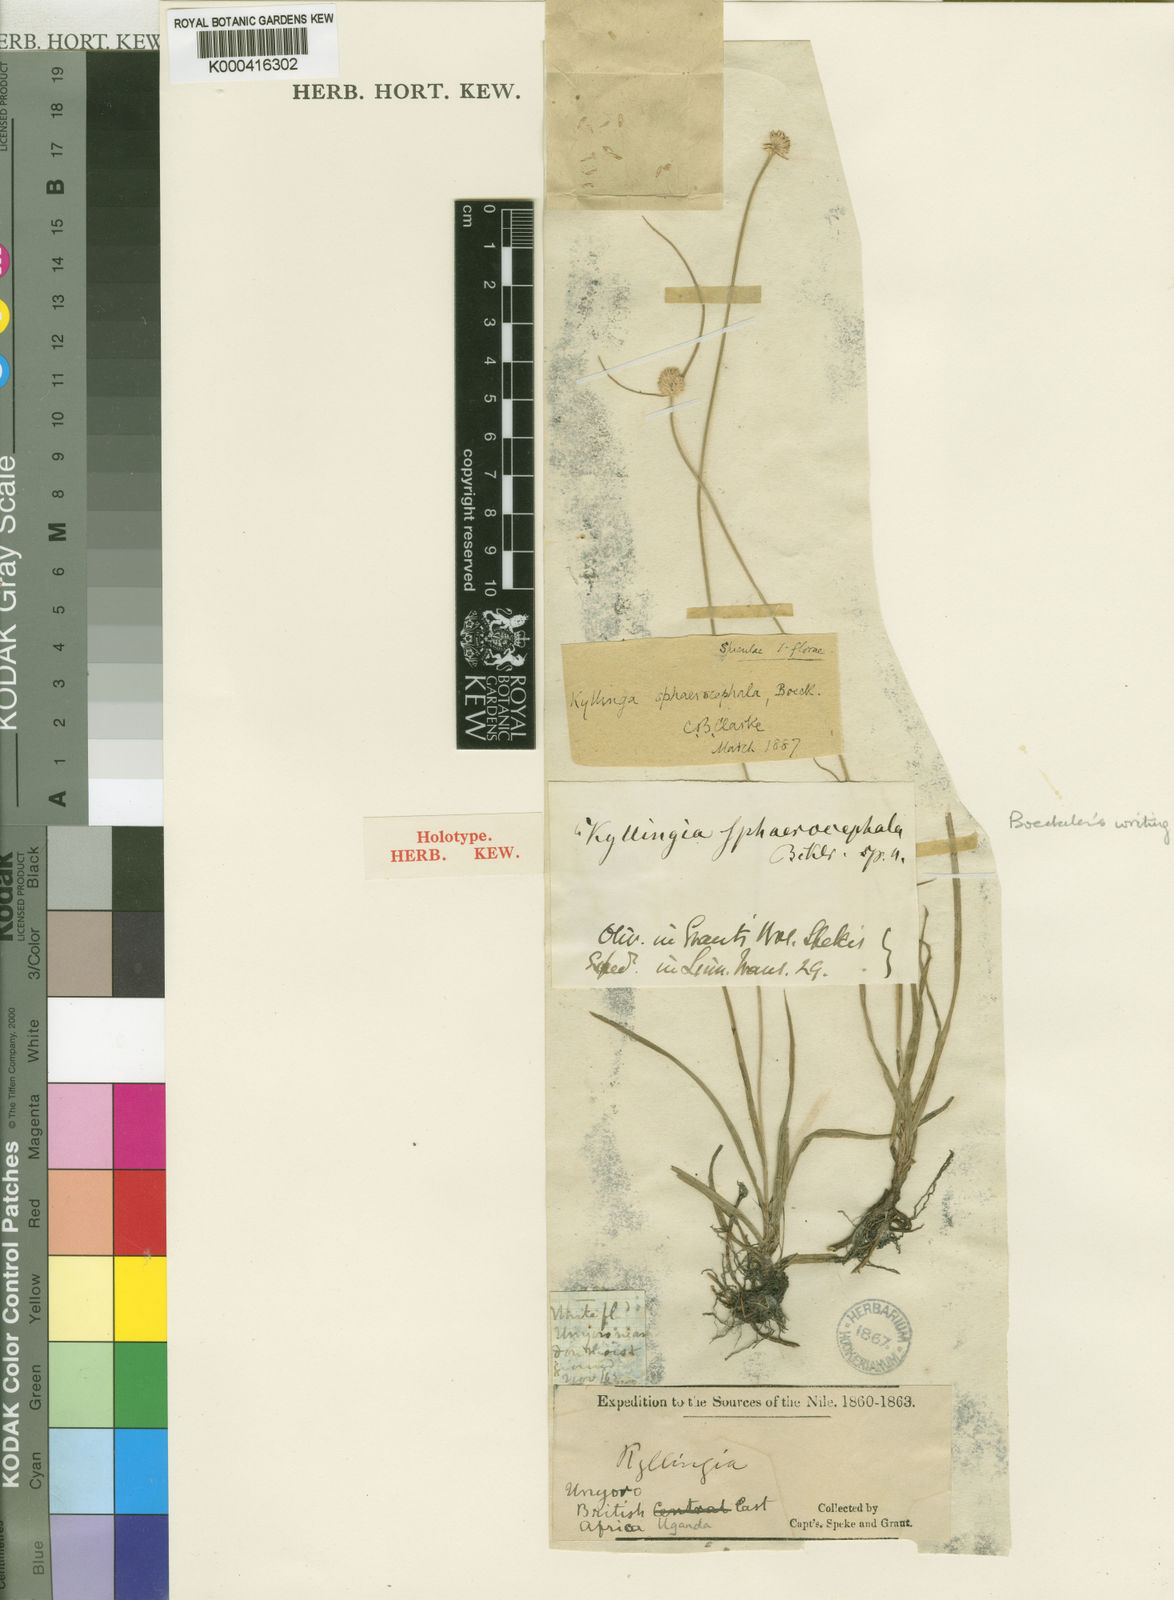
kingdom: Plantae
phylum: Tracheophyta
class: Liliopsida
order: Poales
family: Cyperaceae
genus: Cyperus
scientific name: Cyperus richardii
